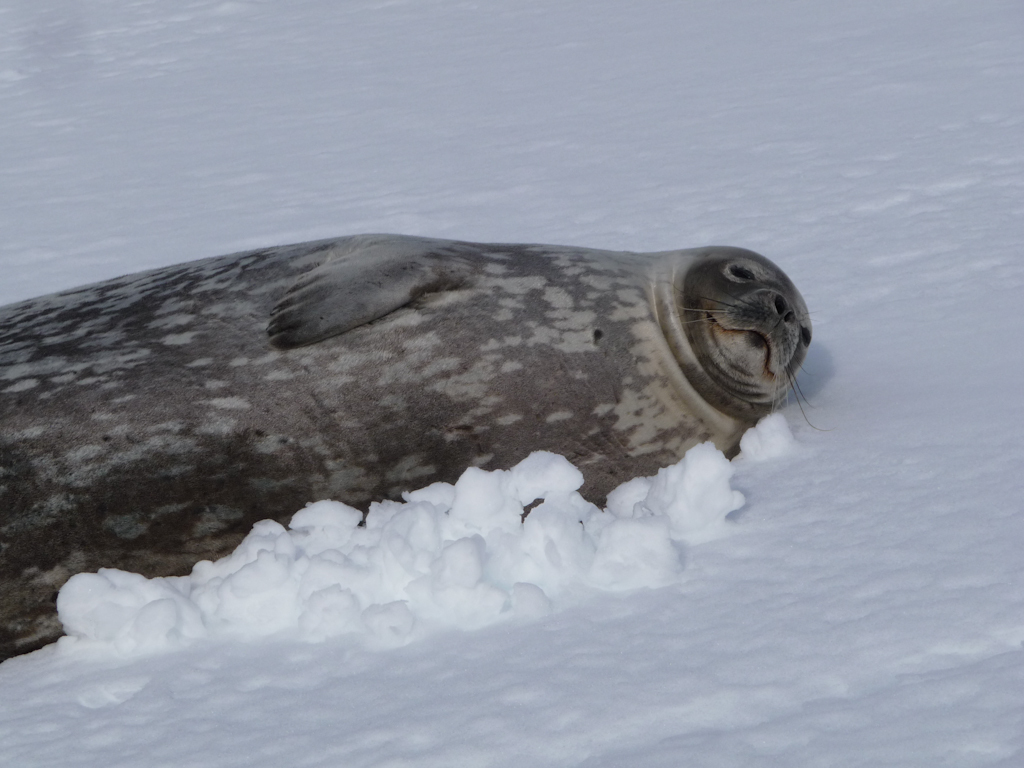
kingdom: Animalia
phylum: Chordata
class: Mammalia
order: Carnivora
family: Phocidae
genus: Leptonychotes
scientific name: Leptonychotes weddellii
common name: Weddell Seal
